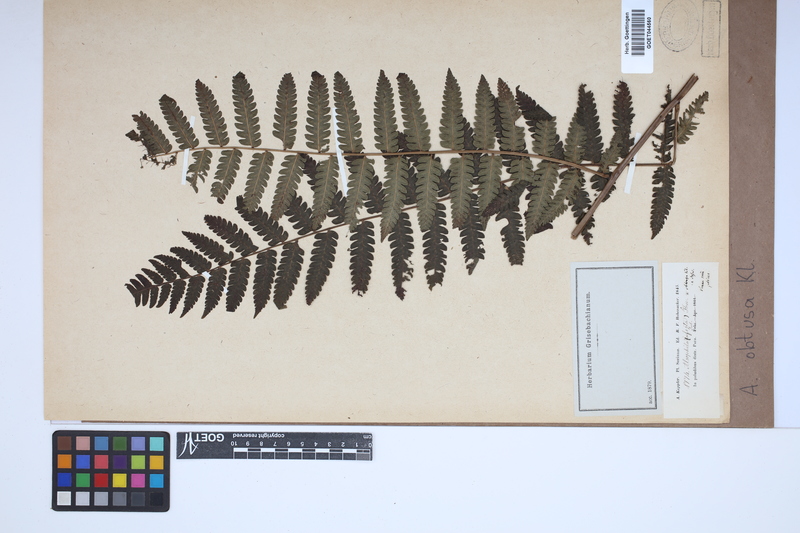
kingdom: Plantae
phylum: Tracheophyta
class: Polypodiopsida
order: Cyatheales
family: Cyatheaceae
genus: Cyathea
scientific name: Cyathea pungens
